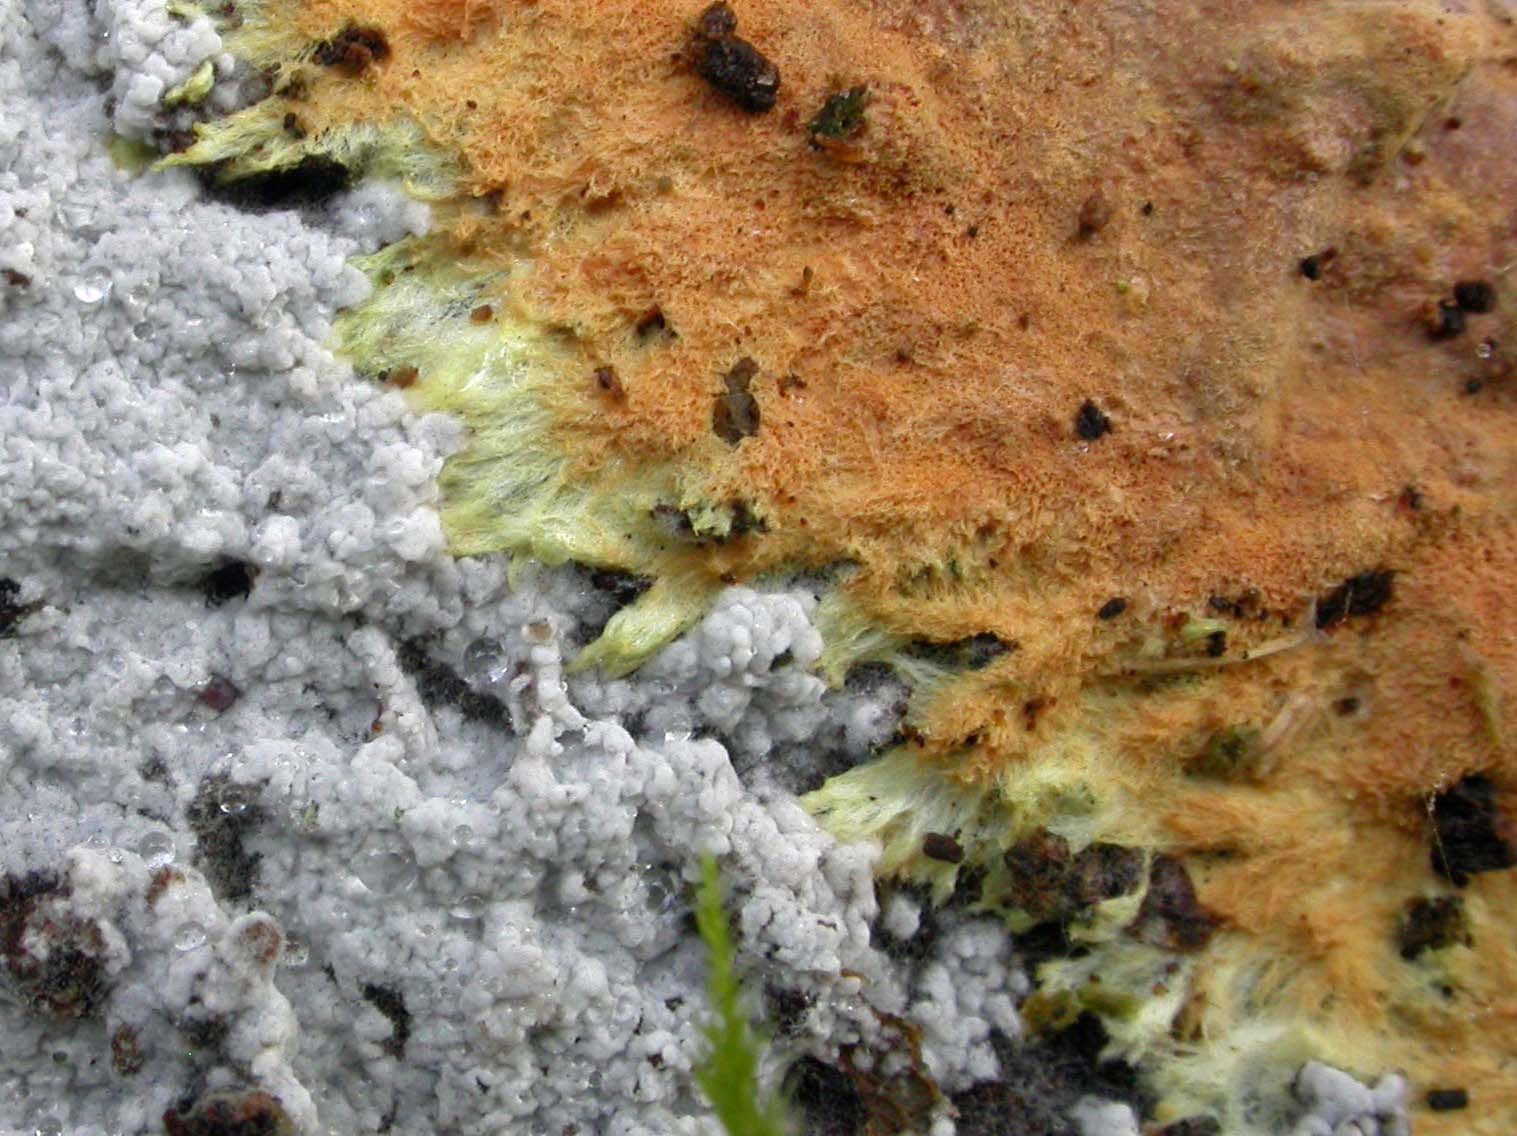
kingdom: Fungi
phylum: Basidiomycota
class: Agaricomycetes
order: Atheliales
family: Atheliaceae
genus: Athelia
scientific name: Athelia epiphylla
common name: almindelig barkhinde
